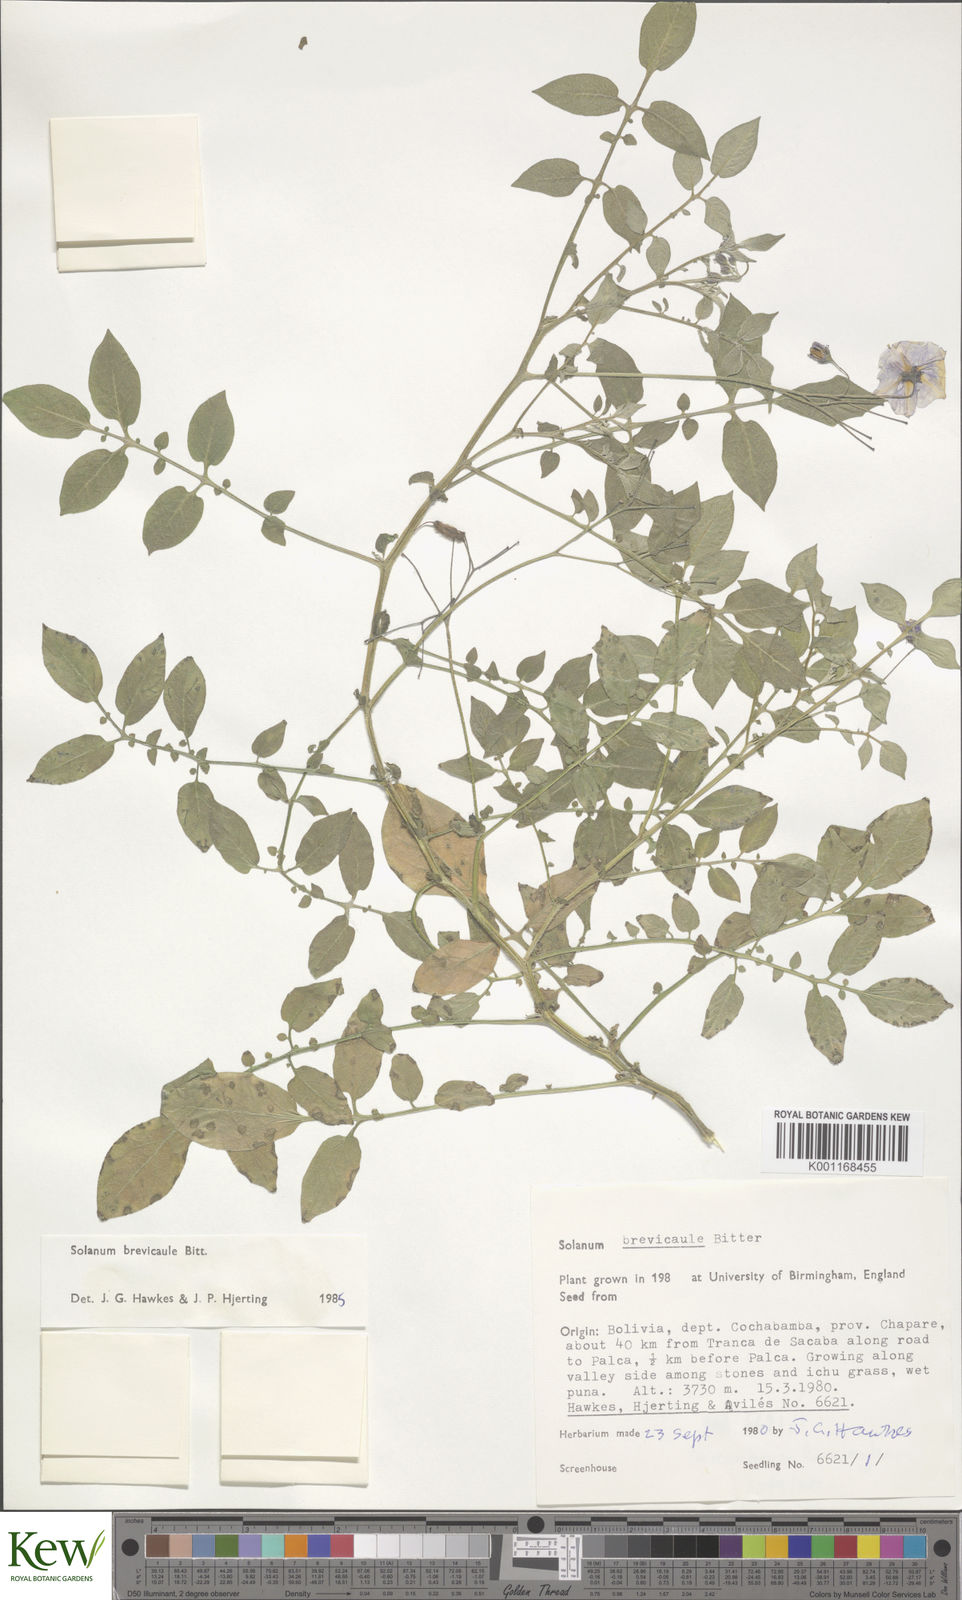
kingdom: Plantae
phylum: Tracheophyta
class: Magnoliopsida
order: Solanales
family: Solanaceae
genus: Solanum
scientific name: Solanum brevicaule
